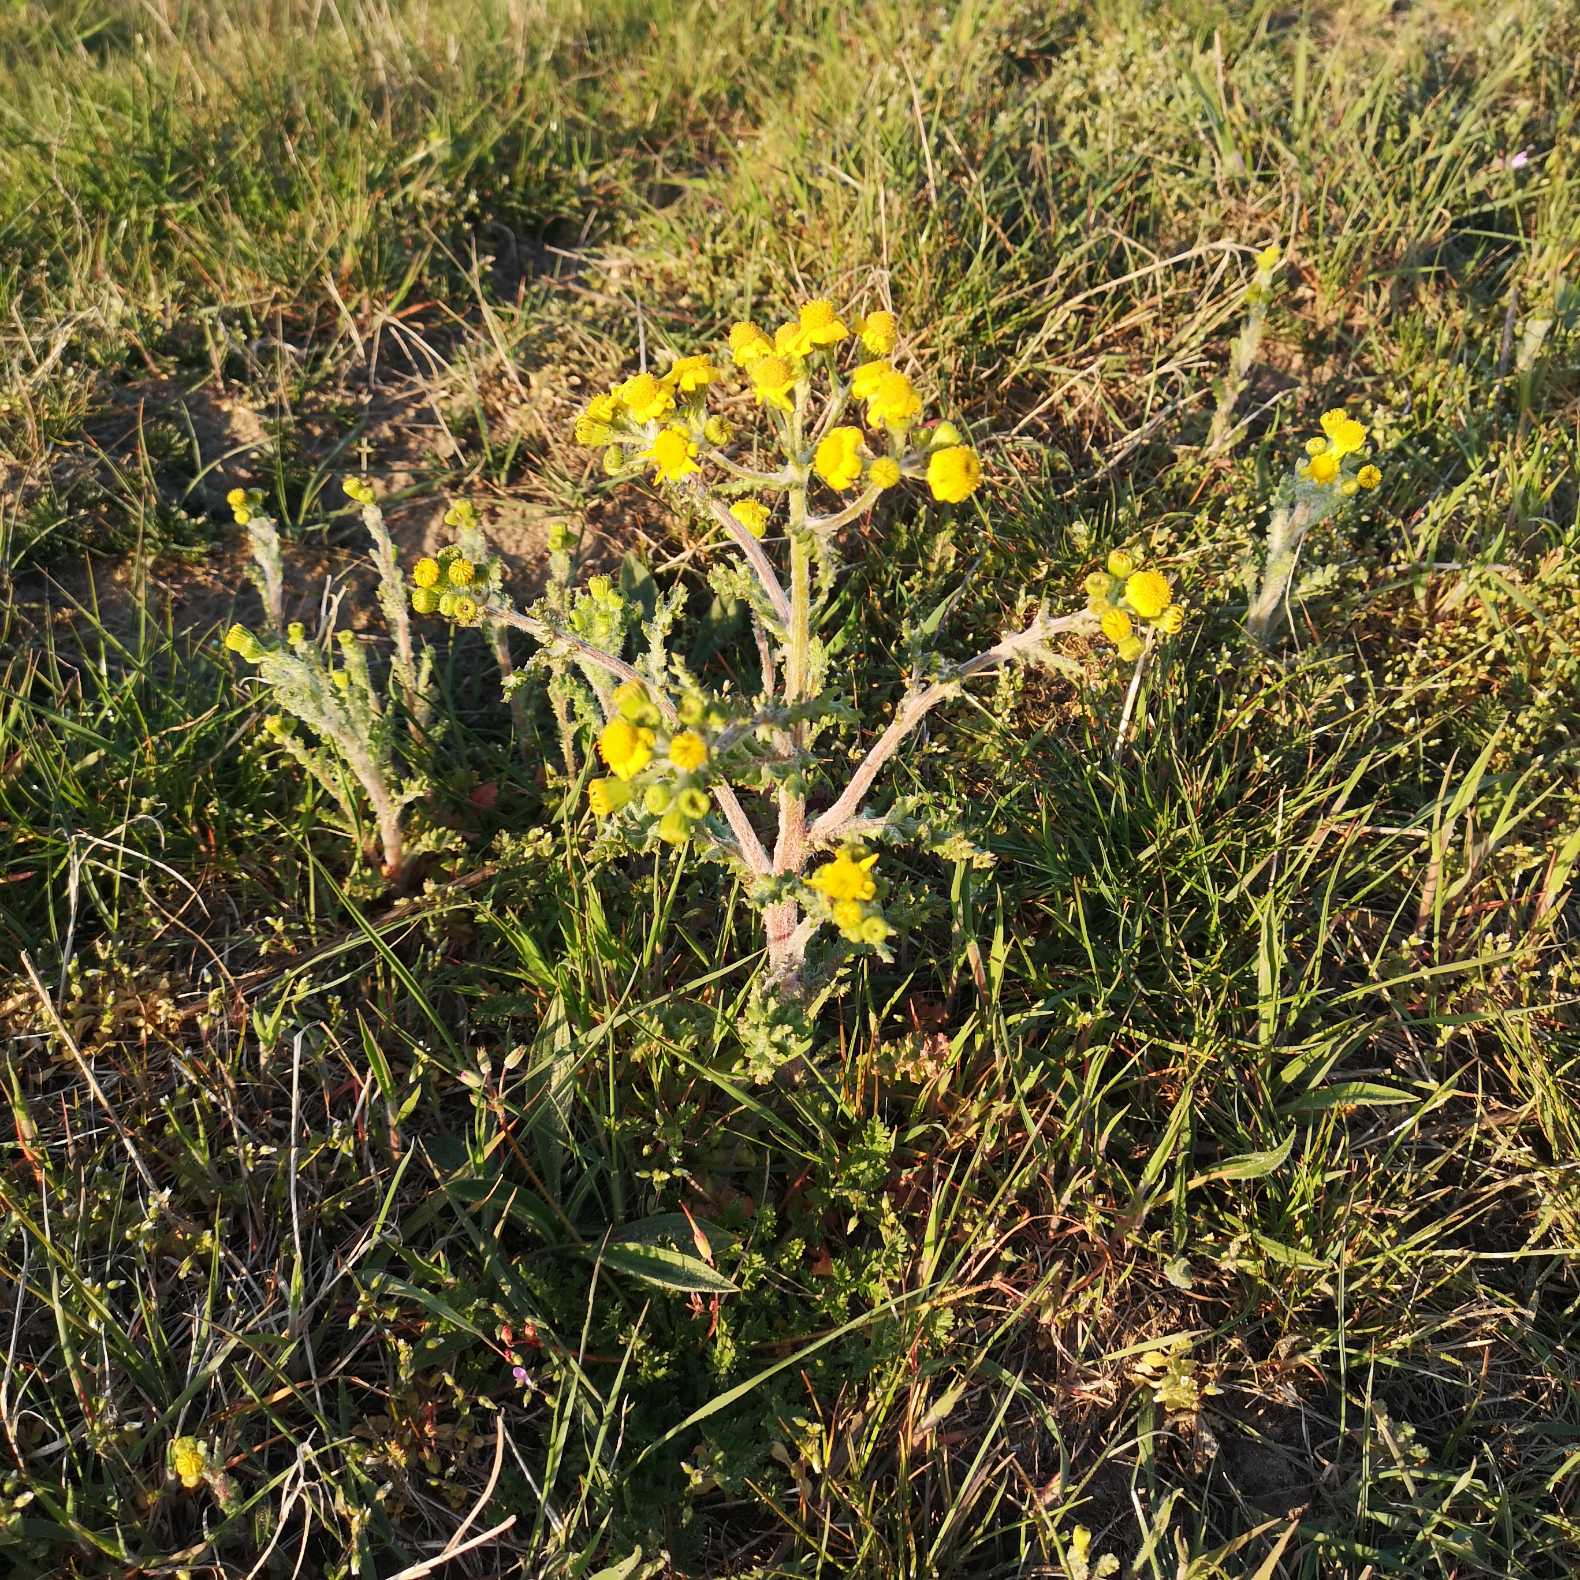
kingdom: Plantae
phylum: Tracheophyta
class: Magnoliopsida
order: Asterales
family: Asteraceae
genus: Senecio
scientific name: Senecio leucanthemifolius
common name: Vår-brandbæger
